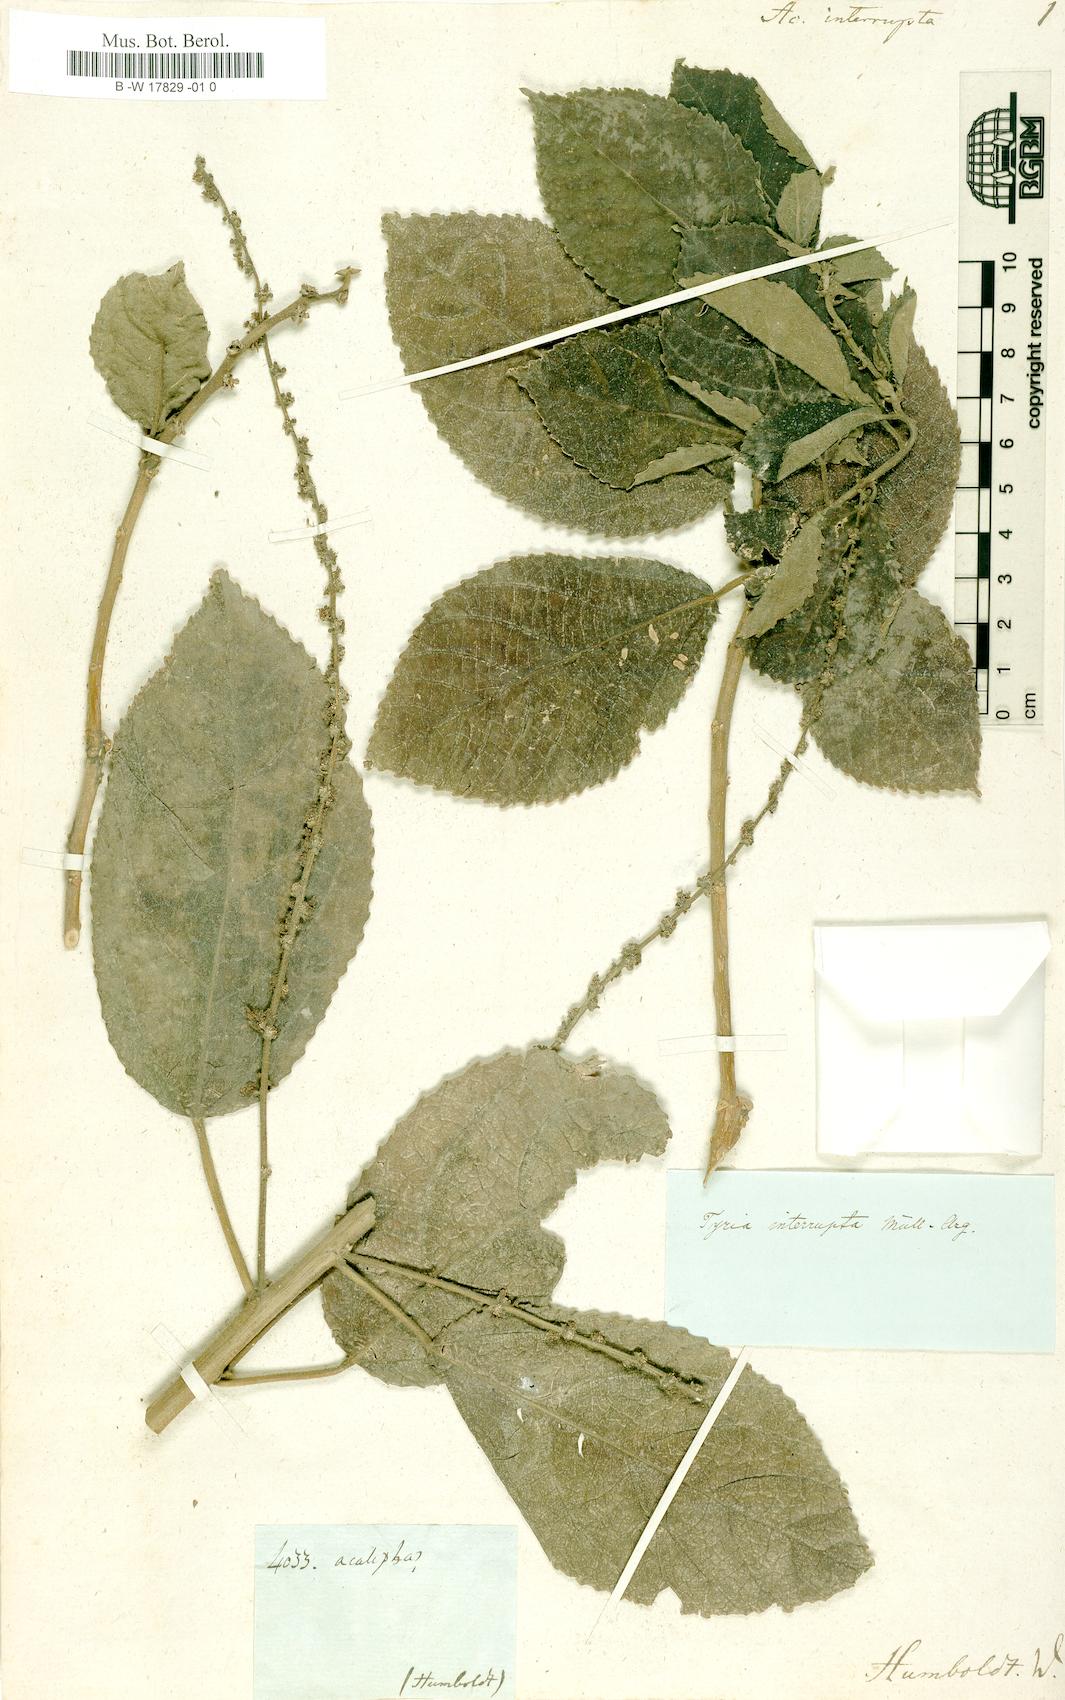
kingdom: Plantae
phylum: Tracheophyta
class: Magnoliopsida
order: Malpighiales
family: Euphorbiaceae
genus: Bernardia
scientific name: Bernardia dodecandra
